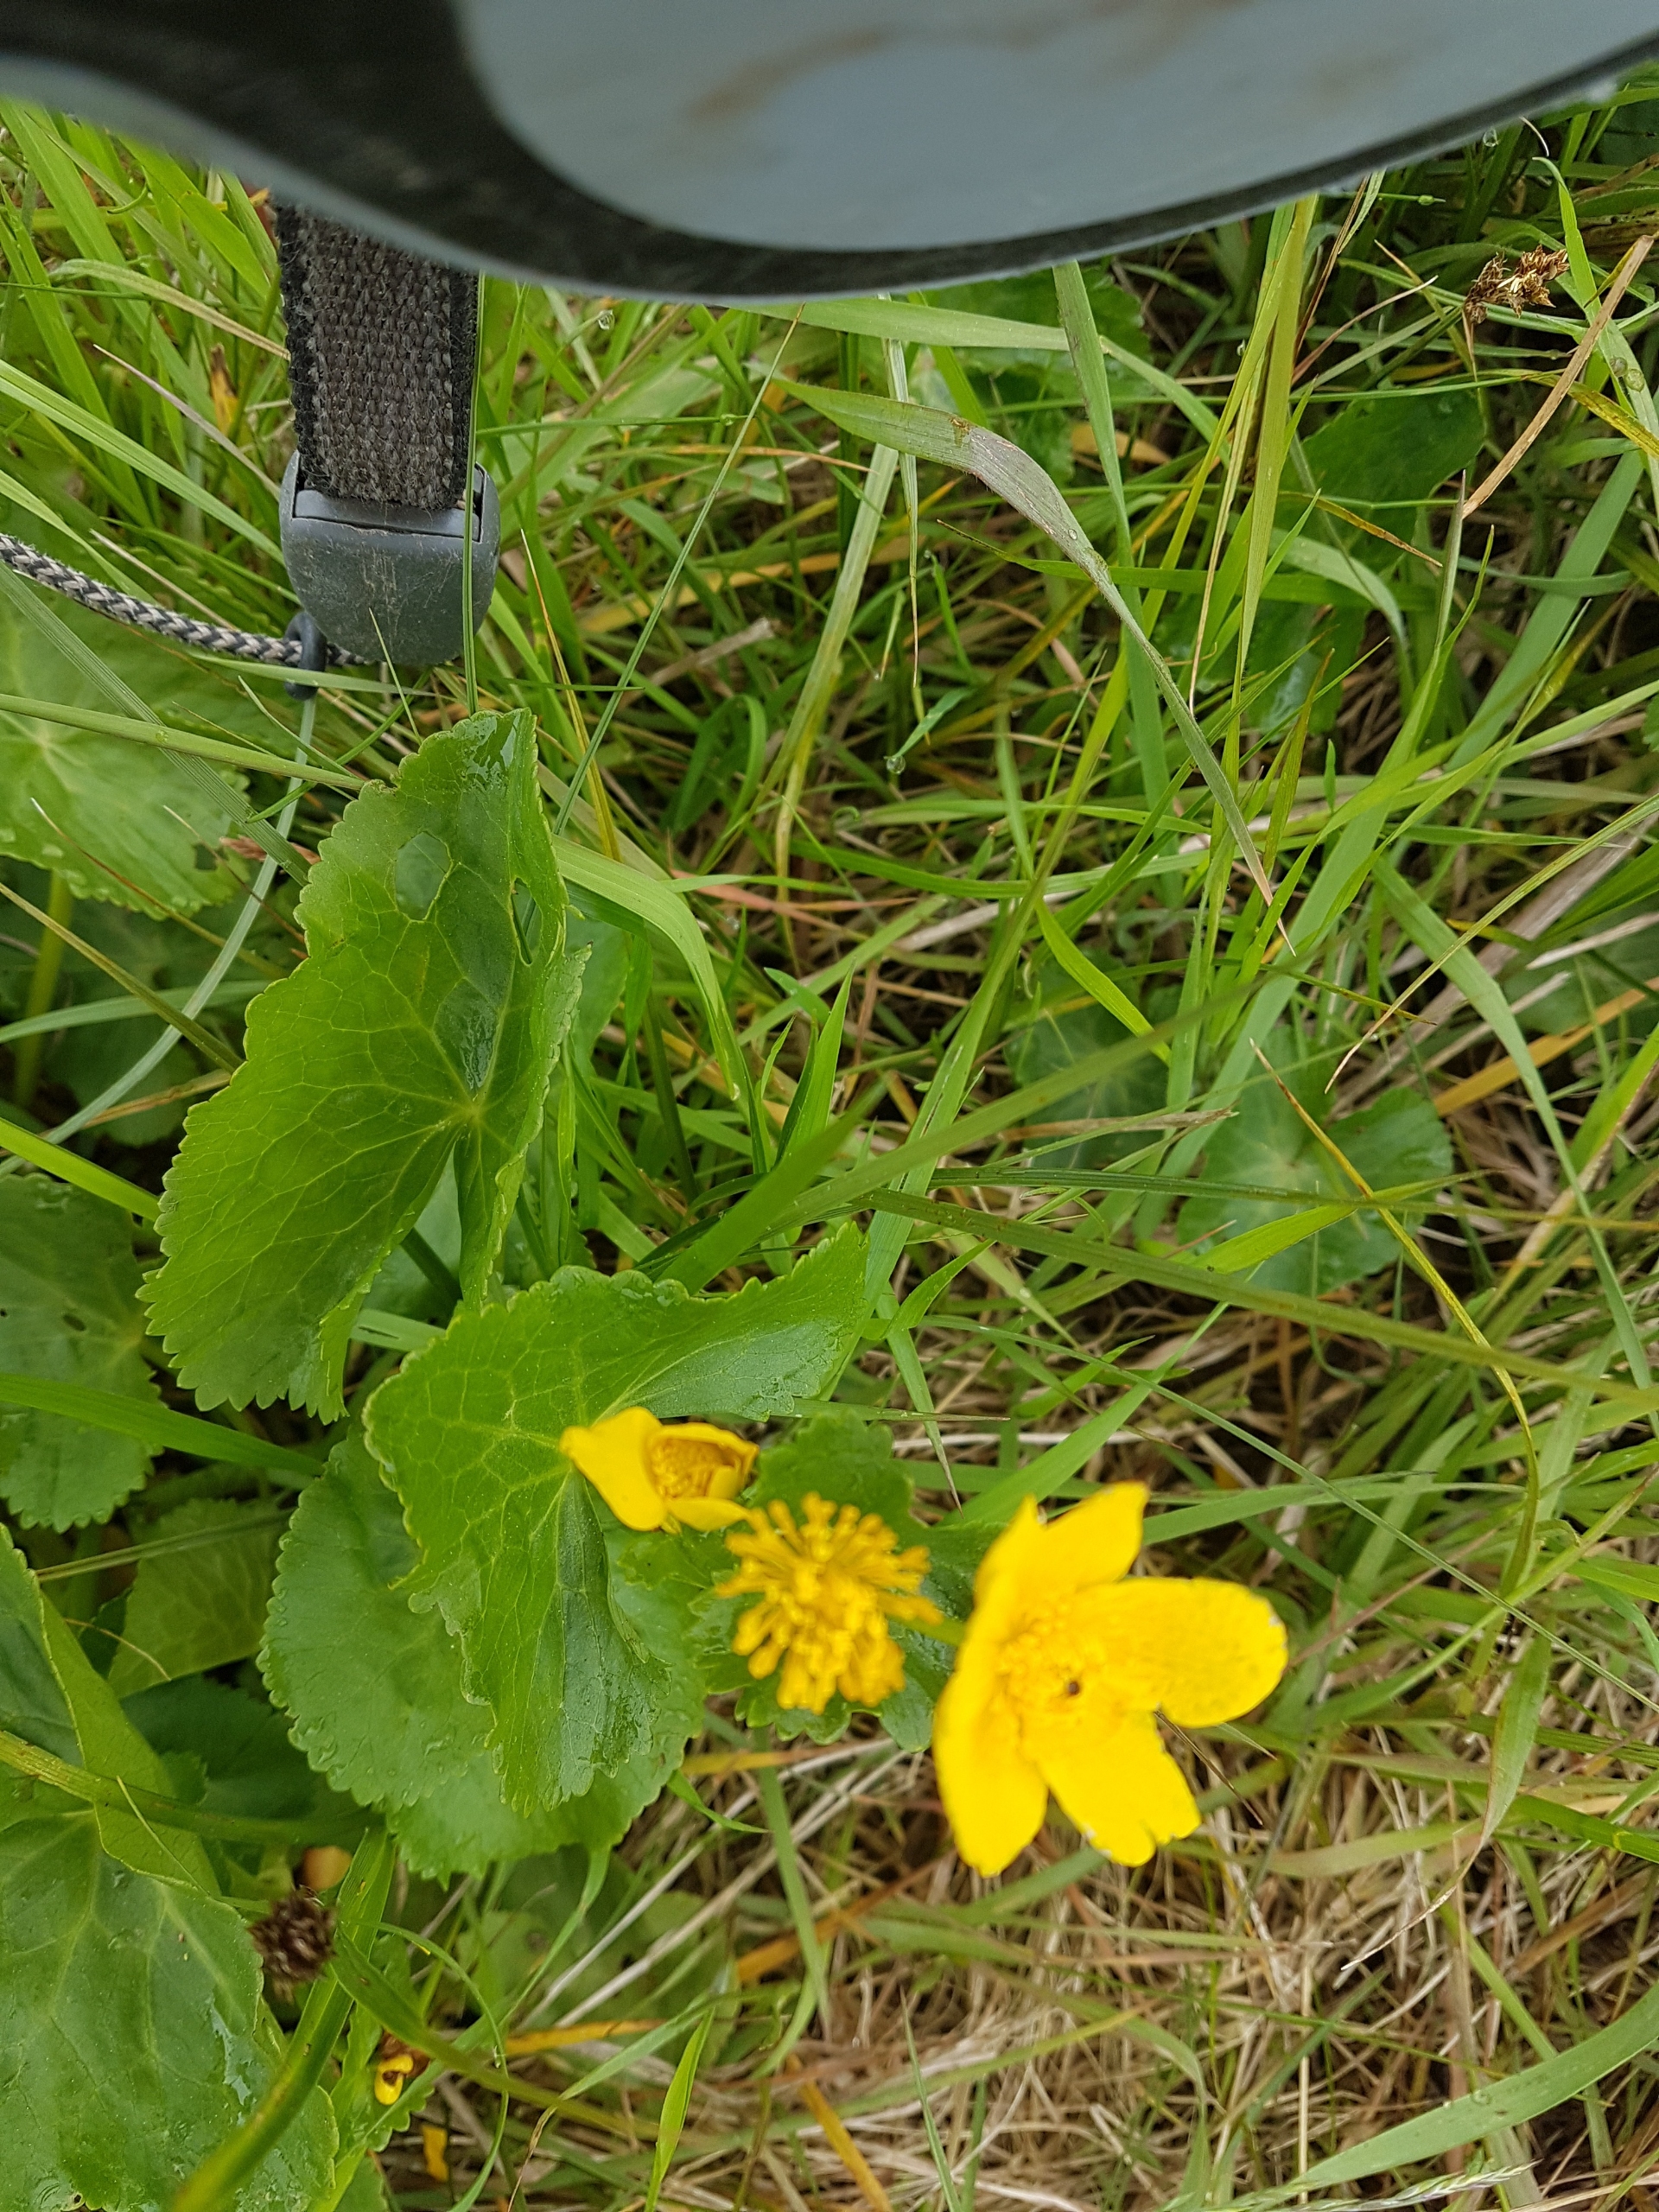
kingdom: Plantae
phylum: Tracheophyta
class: Magnoliopsida
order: Ranunculales
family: Ranunculaceae
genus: Caltha
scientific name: Caltha palustris
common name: Eng-kabbeleje
